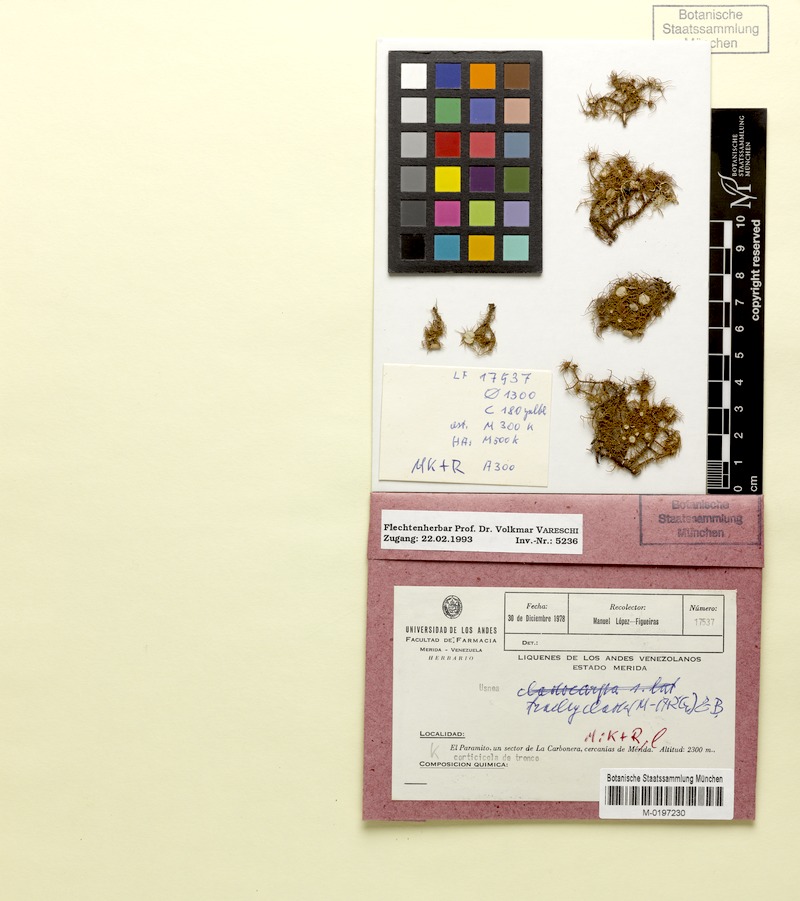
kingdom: Fungi
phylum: Ascomycota
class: Lecanoromycetes
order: Lecanorales
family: Parmeliaceae
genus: Usnea
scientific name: Usnea
